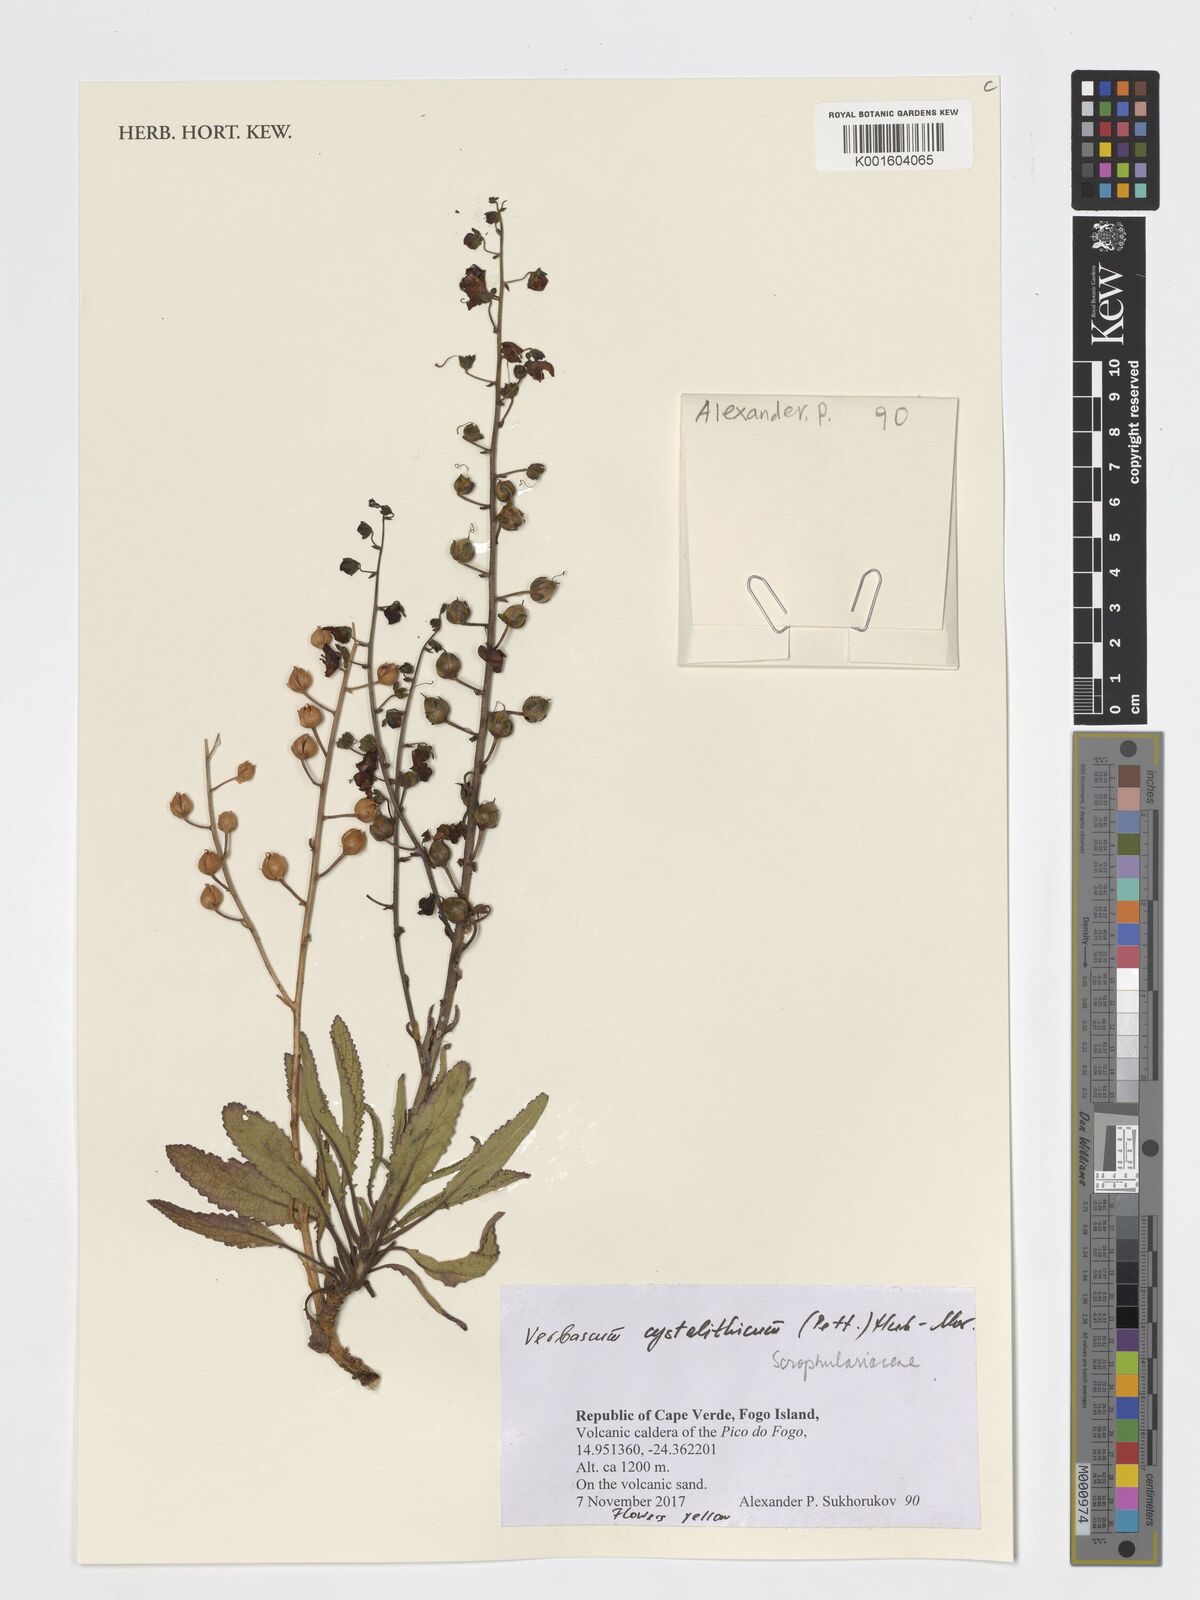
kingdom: Plantae
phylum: Tracheophyta
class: Magnoliopsida
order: Lamiales
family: Scrophulariaceae
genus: Verbascum
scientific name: Verbascum cystolithicum
